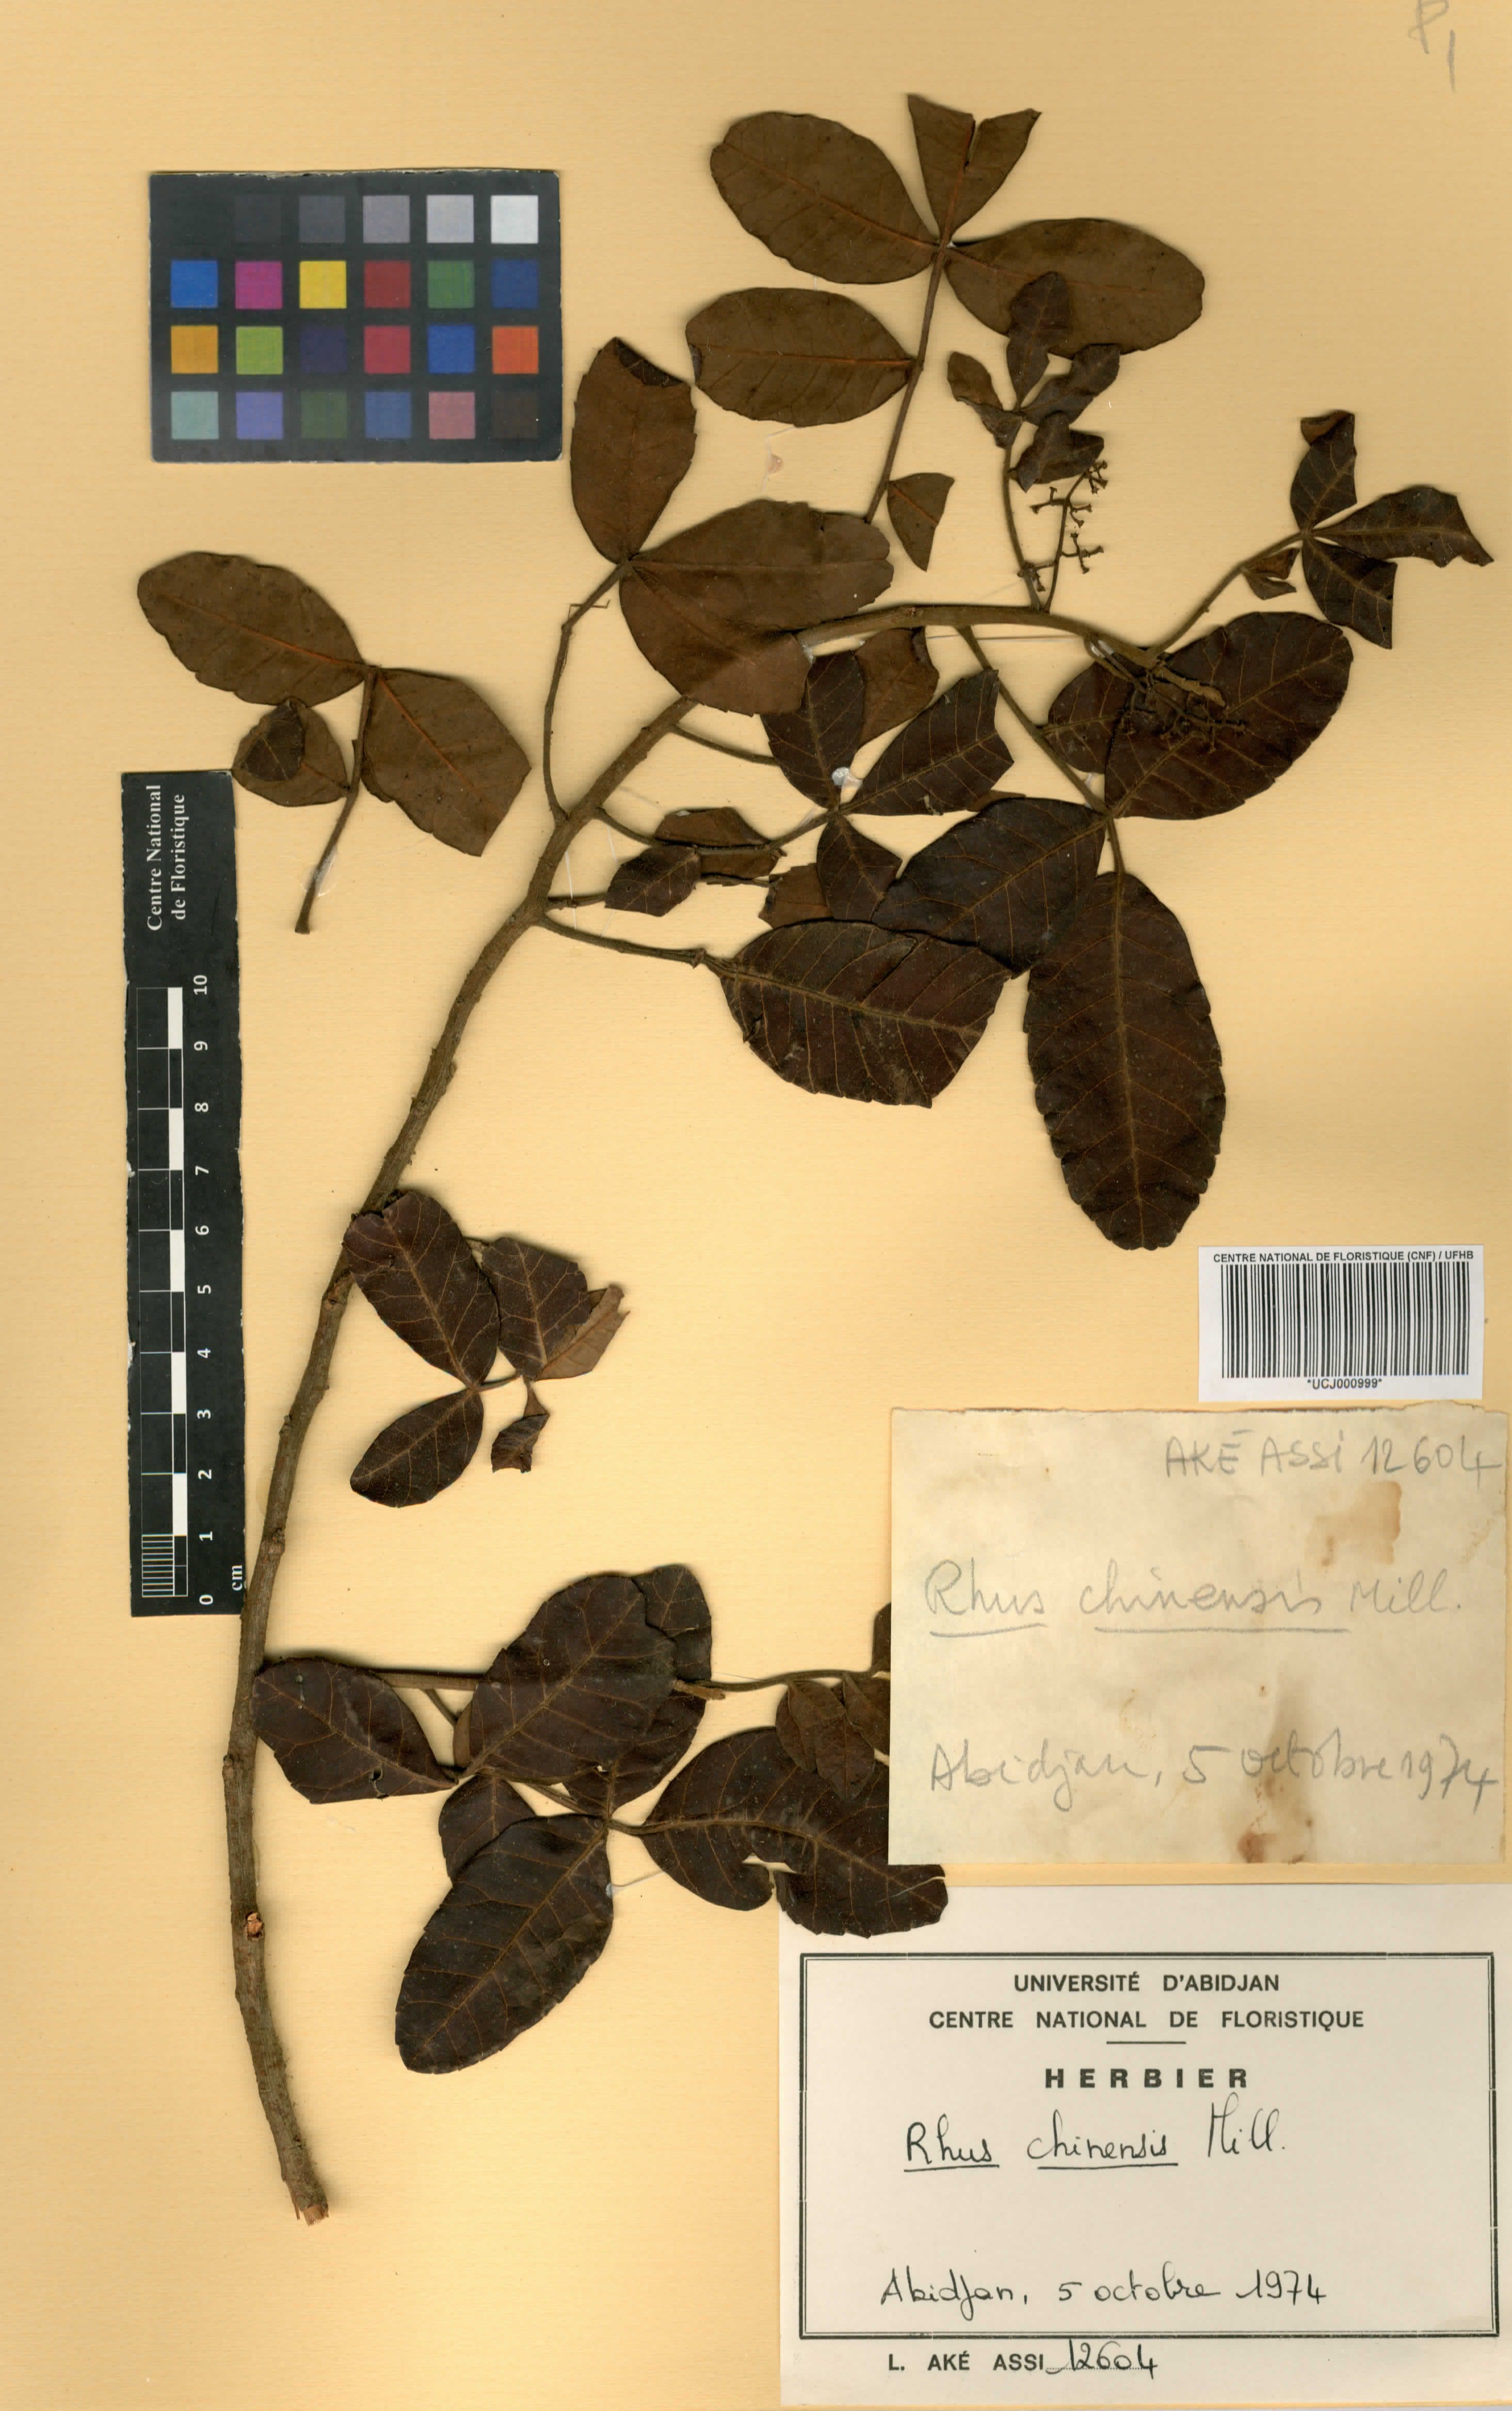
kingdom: Plantae
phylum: Tracheophyta
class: Magnoliopsida
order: Sapindales
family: Anacardiaceae
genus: Rhus
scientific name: Rhus chinensis
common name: Chinese gall
